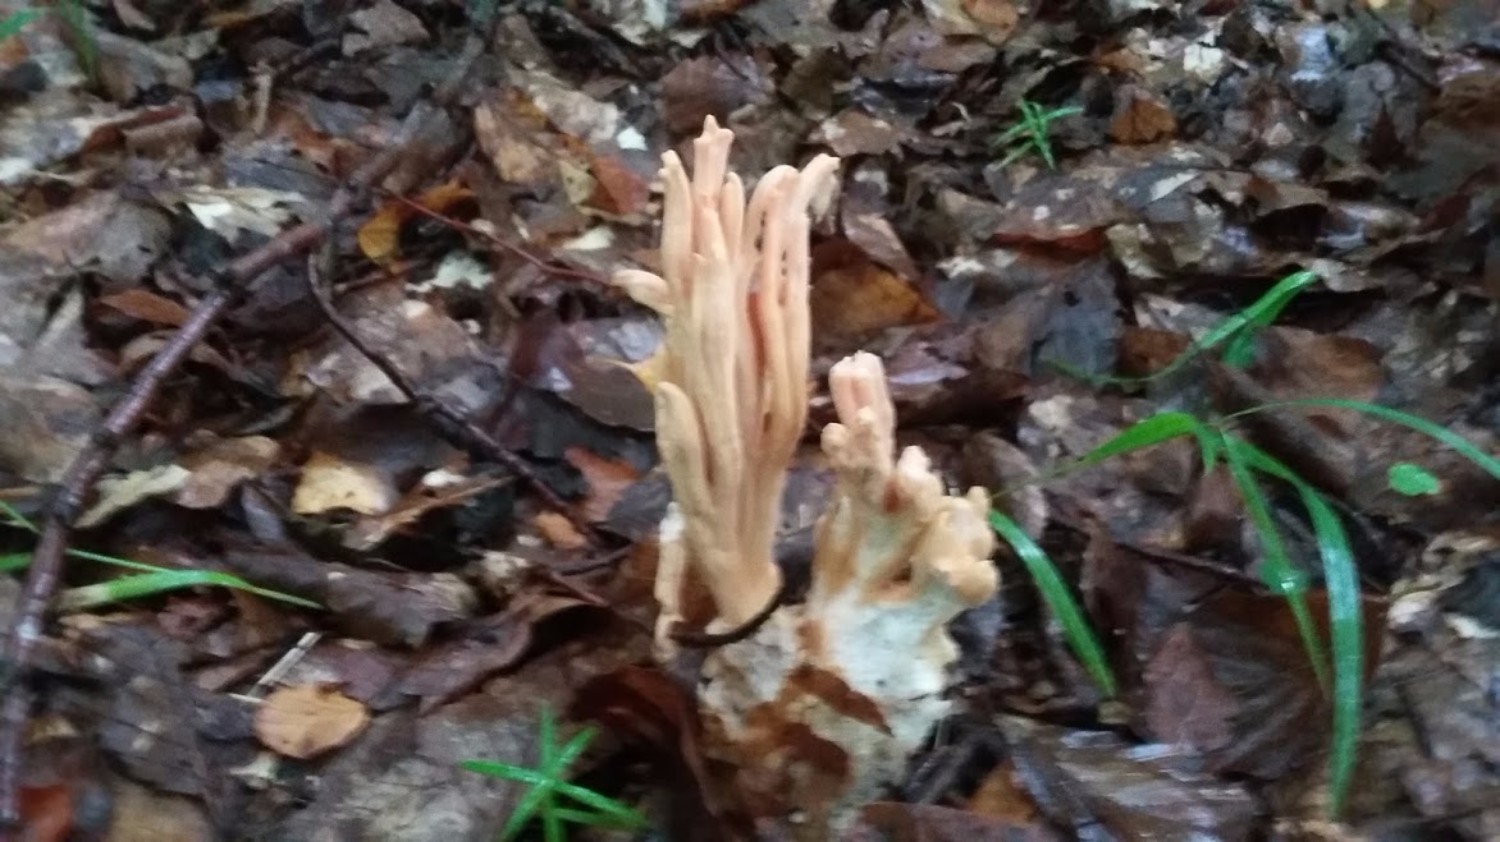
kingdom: Fungi
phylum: Basidiomycota
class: Agaricomycetes
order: Gomphales
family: Gomphaceae
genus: Ramaria
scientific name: Ramaria
